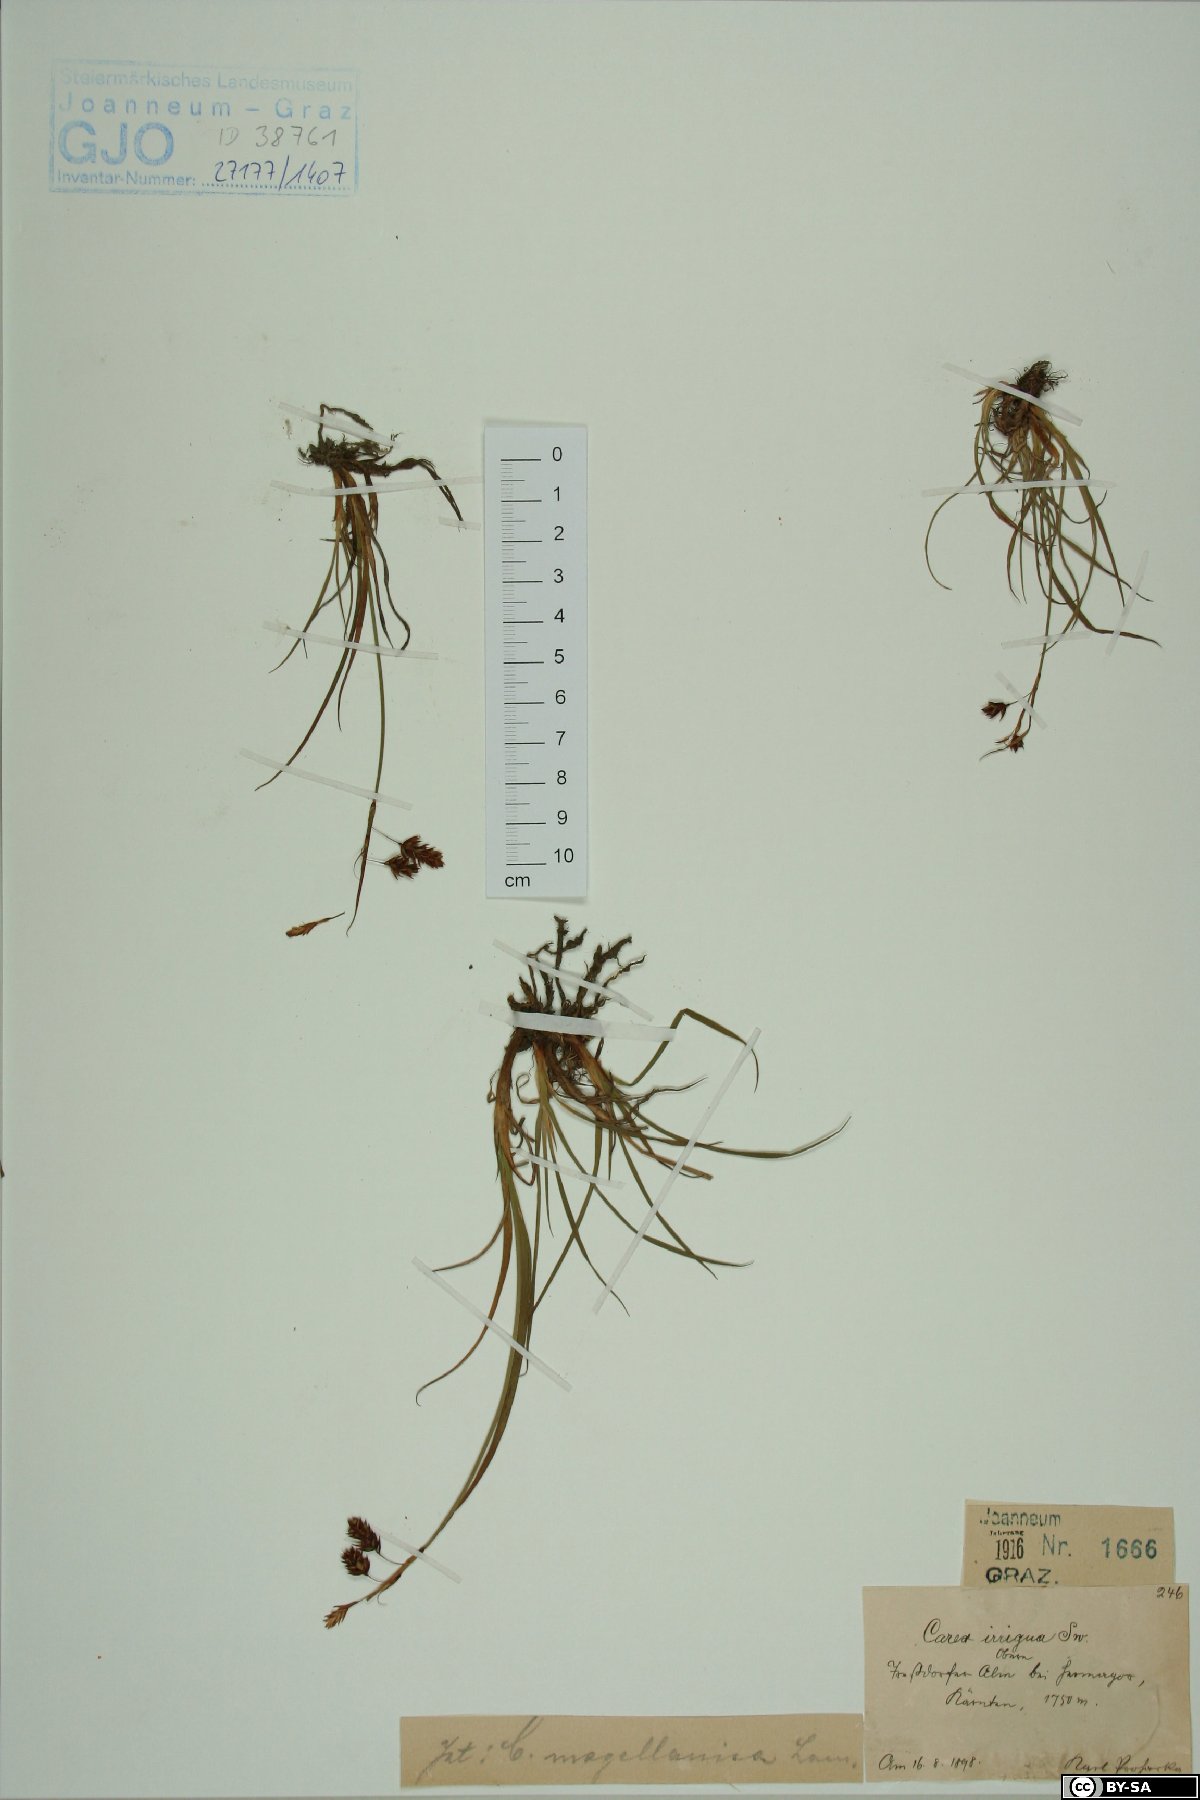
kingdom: Plantae
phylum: Tracheophyta
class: Liliopsida
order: Poales
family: Cyperaceae
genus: Carex
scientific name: Carex magellanica
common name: Bog sedge
